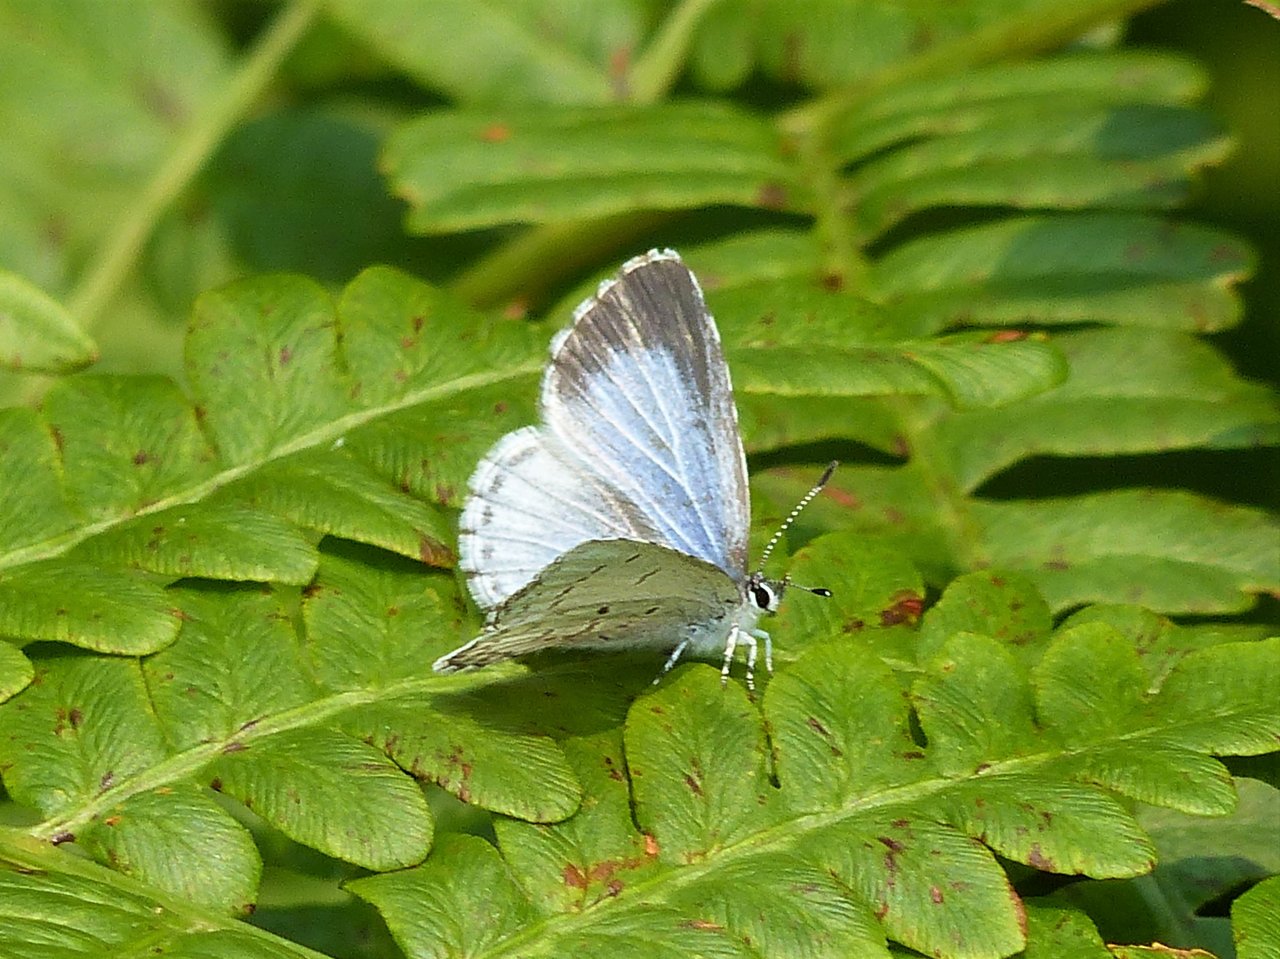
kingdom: Animalia
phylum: Arthropoda
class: Insecta
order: Lepidoptera
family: Lycaenidae
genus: Celastrina
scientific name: Celastrina lucia
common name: Northern Spring Azure
